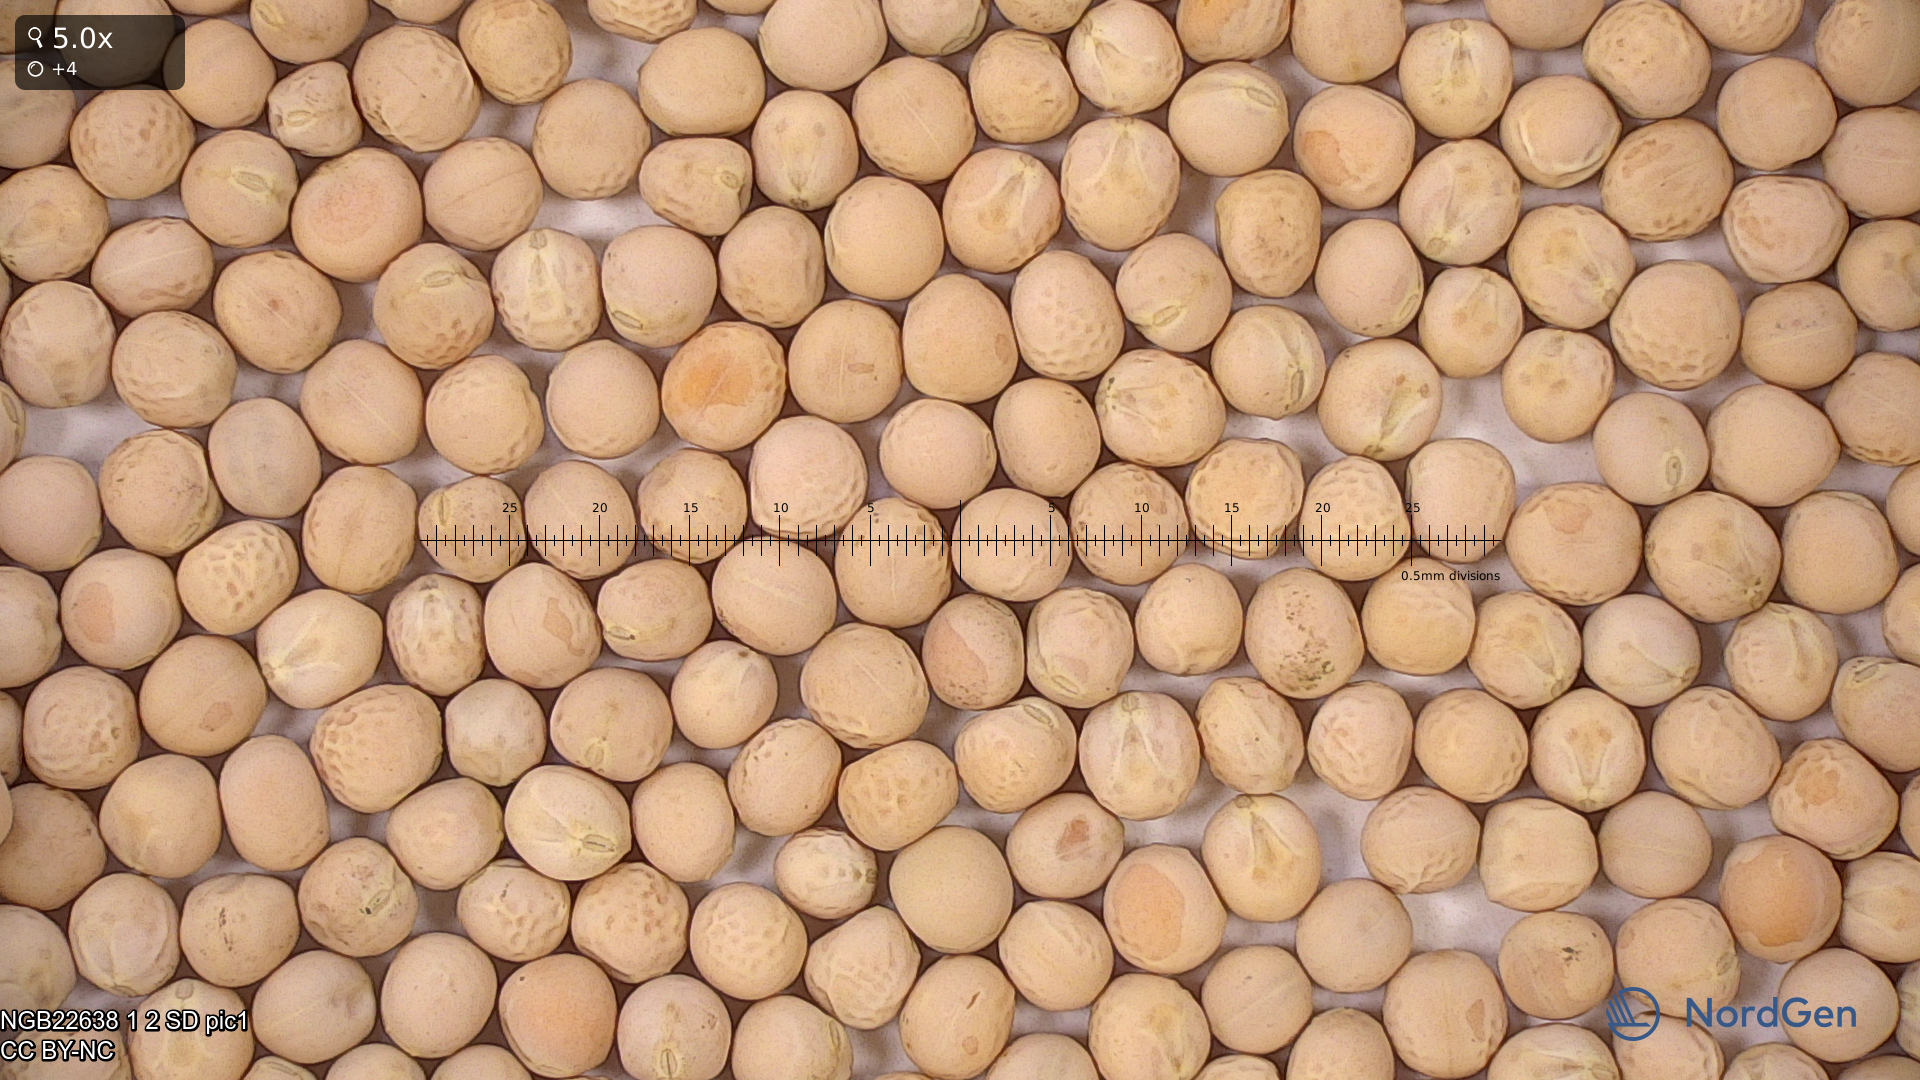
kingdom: Plantae
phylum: Tracheophyta
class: Magnoliopsida
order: Fabales
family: Fabaceae
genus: Lathyrus
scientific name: Lathyrus oleraceus
